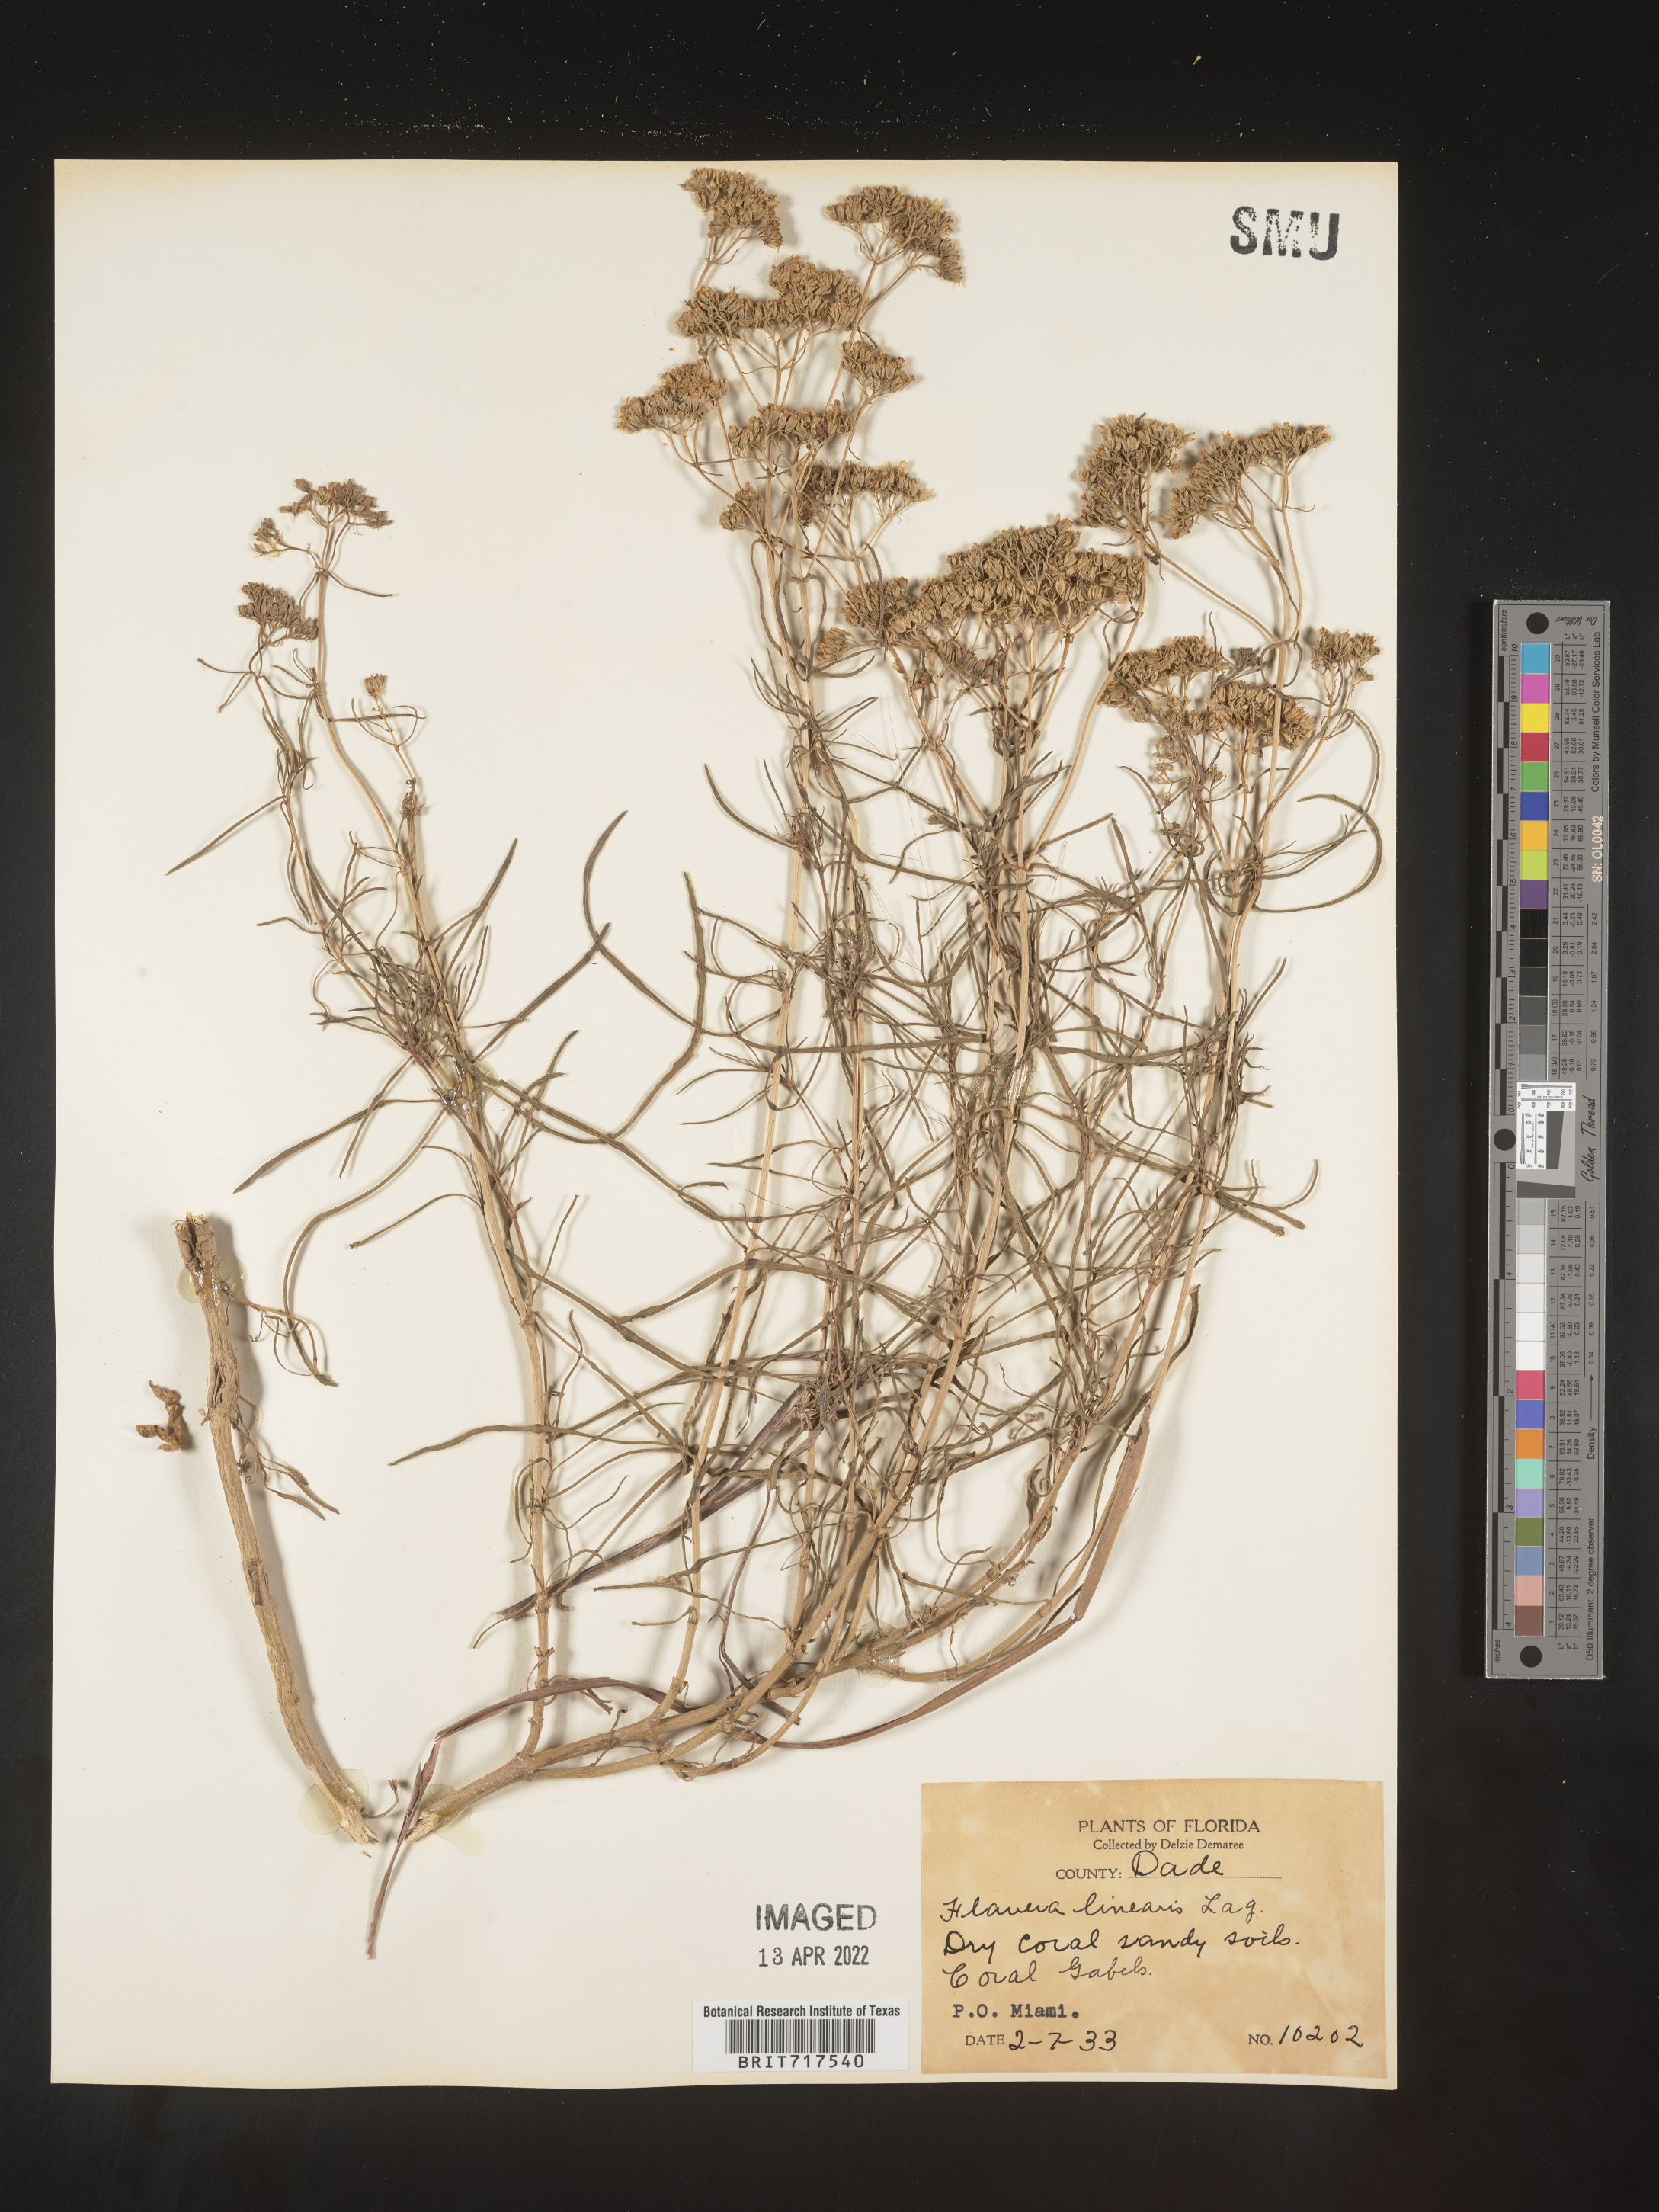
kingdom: Plantae
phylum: Tracheophyta
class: Magnoliopsida
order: Asterales
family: Asteraceae
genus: Flaveria
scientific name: Flaveria linearis
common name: Yellowtop
